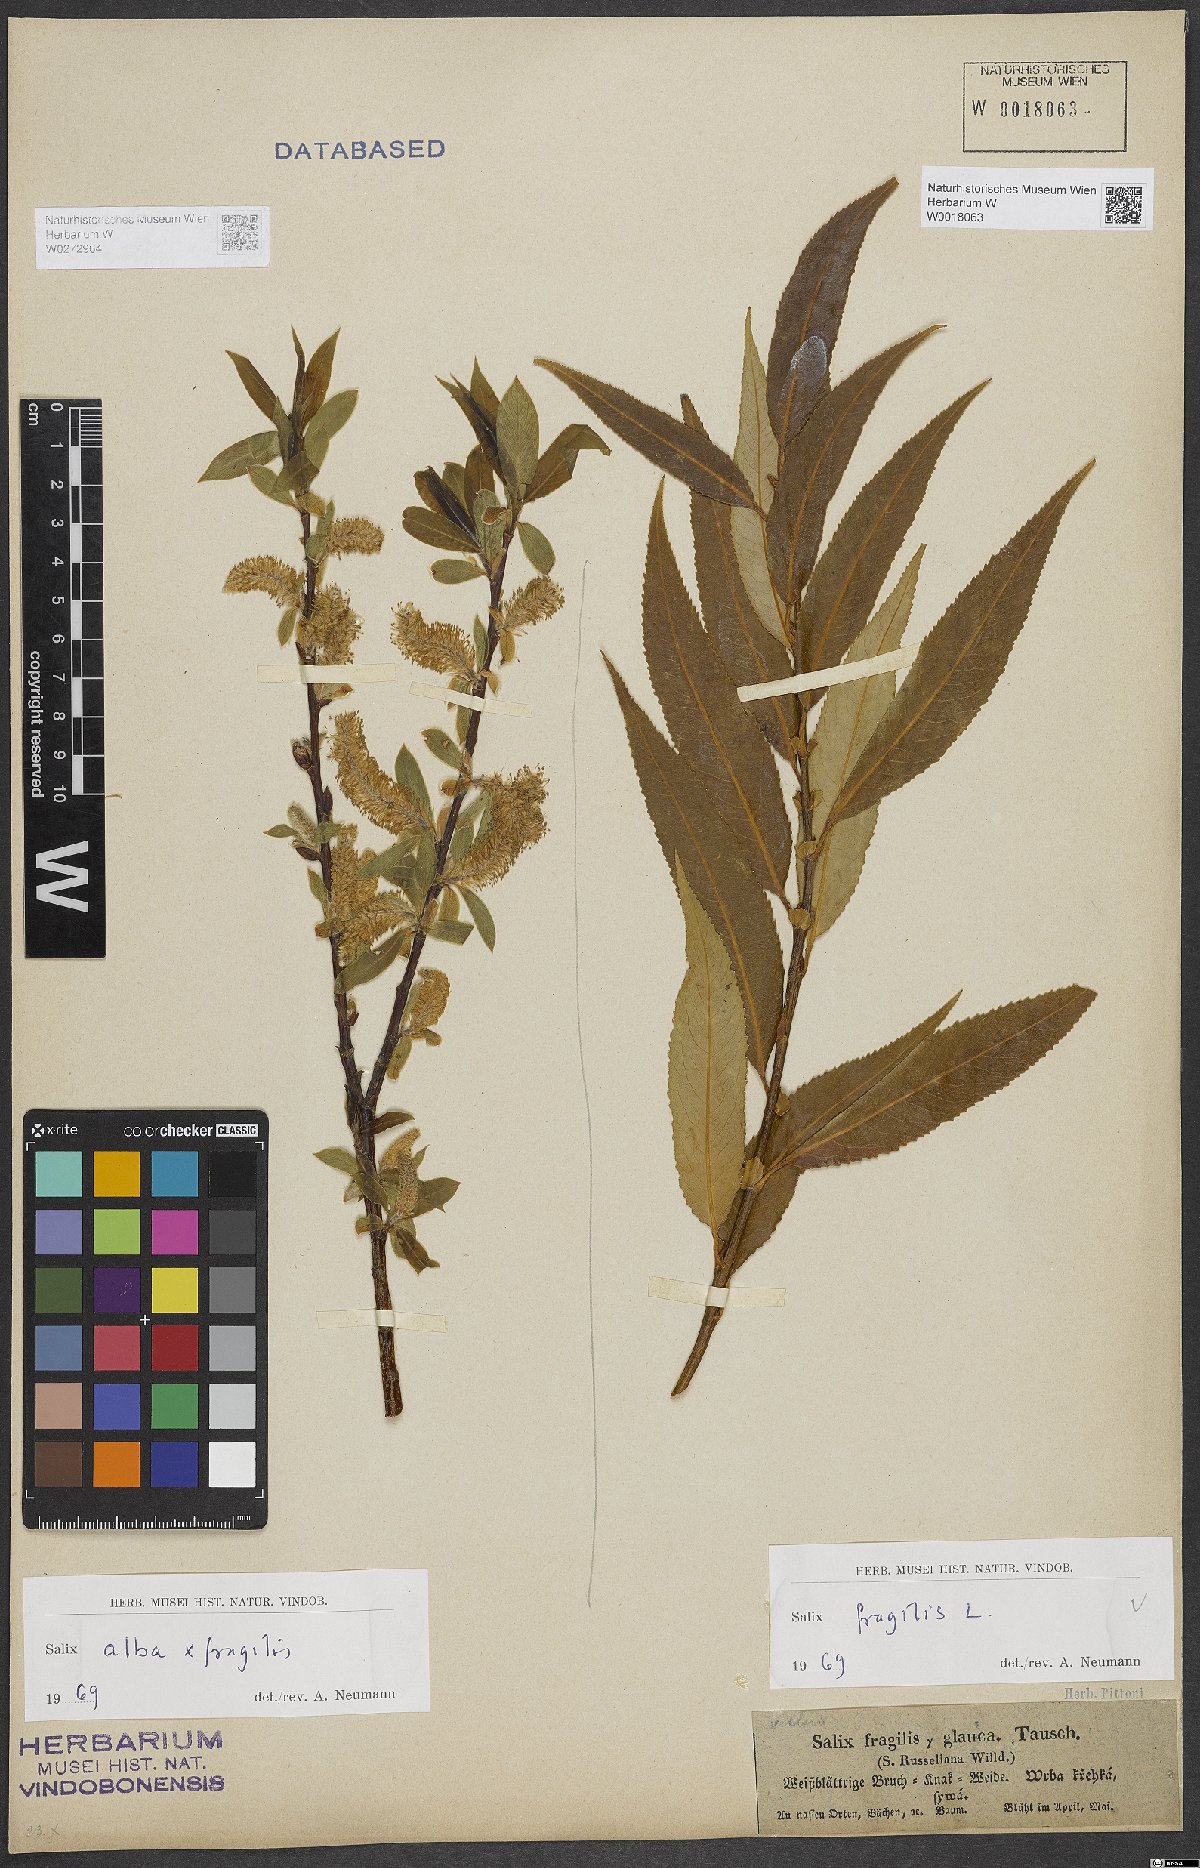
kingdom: Plantae
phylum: Tracheophyta
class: Magnoliopsida
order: Malpighiales
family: Salicaceae
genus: Salix
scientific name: Salix fragilis
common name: Crack willow
